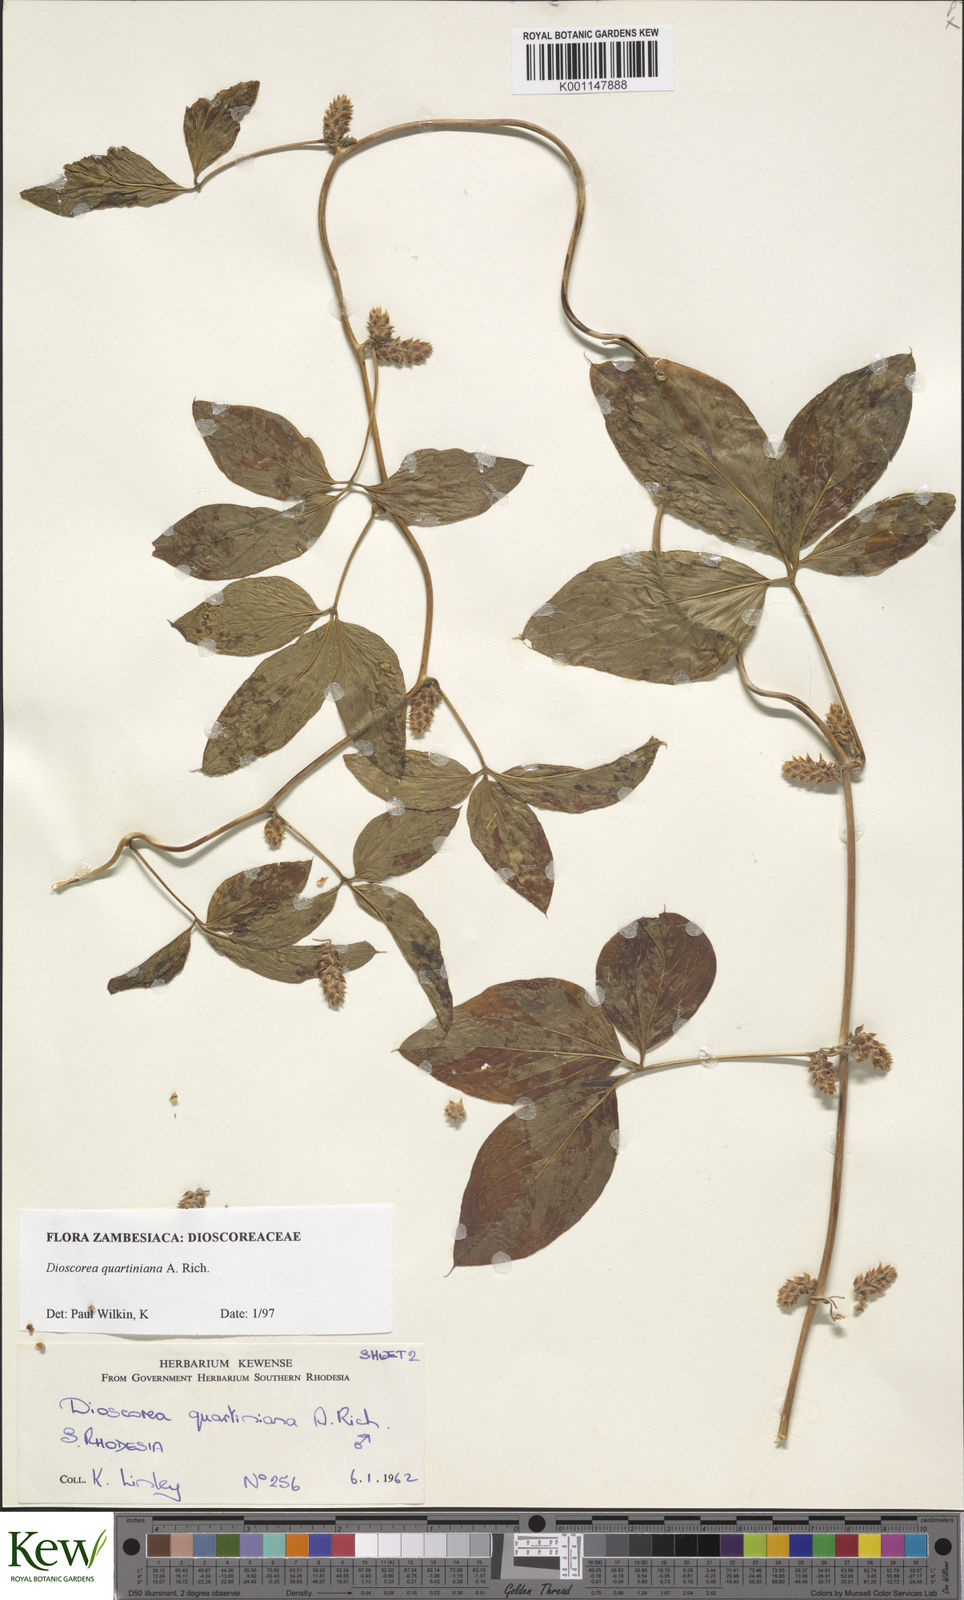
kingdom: Plantae
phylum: Tracheophyta
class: Liliopsida
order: Dioscoreales
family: Dioscoreaceae
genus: Dioscorea
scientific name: Dioscorea quartiniana
